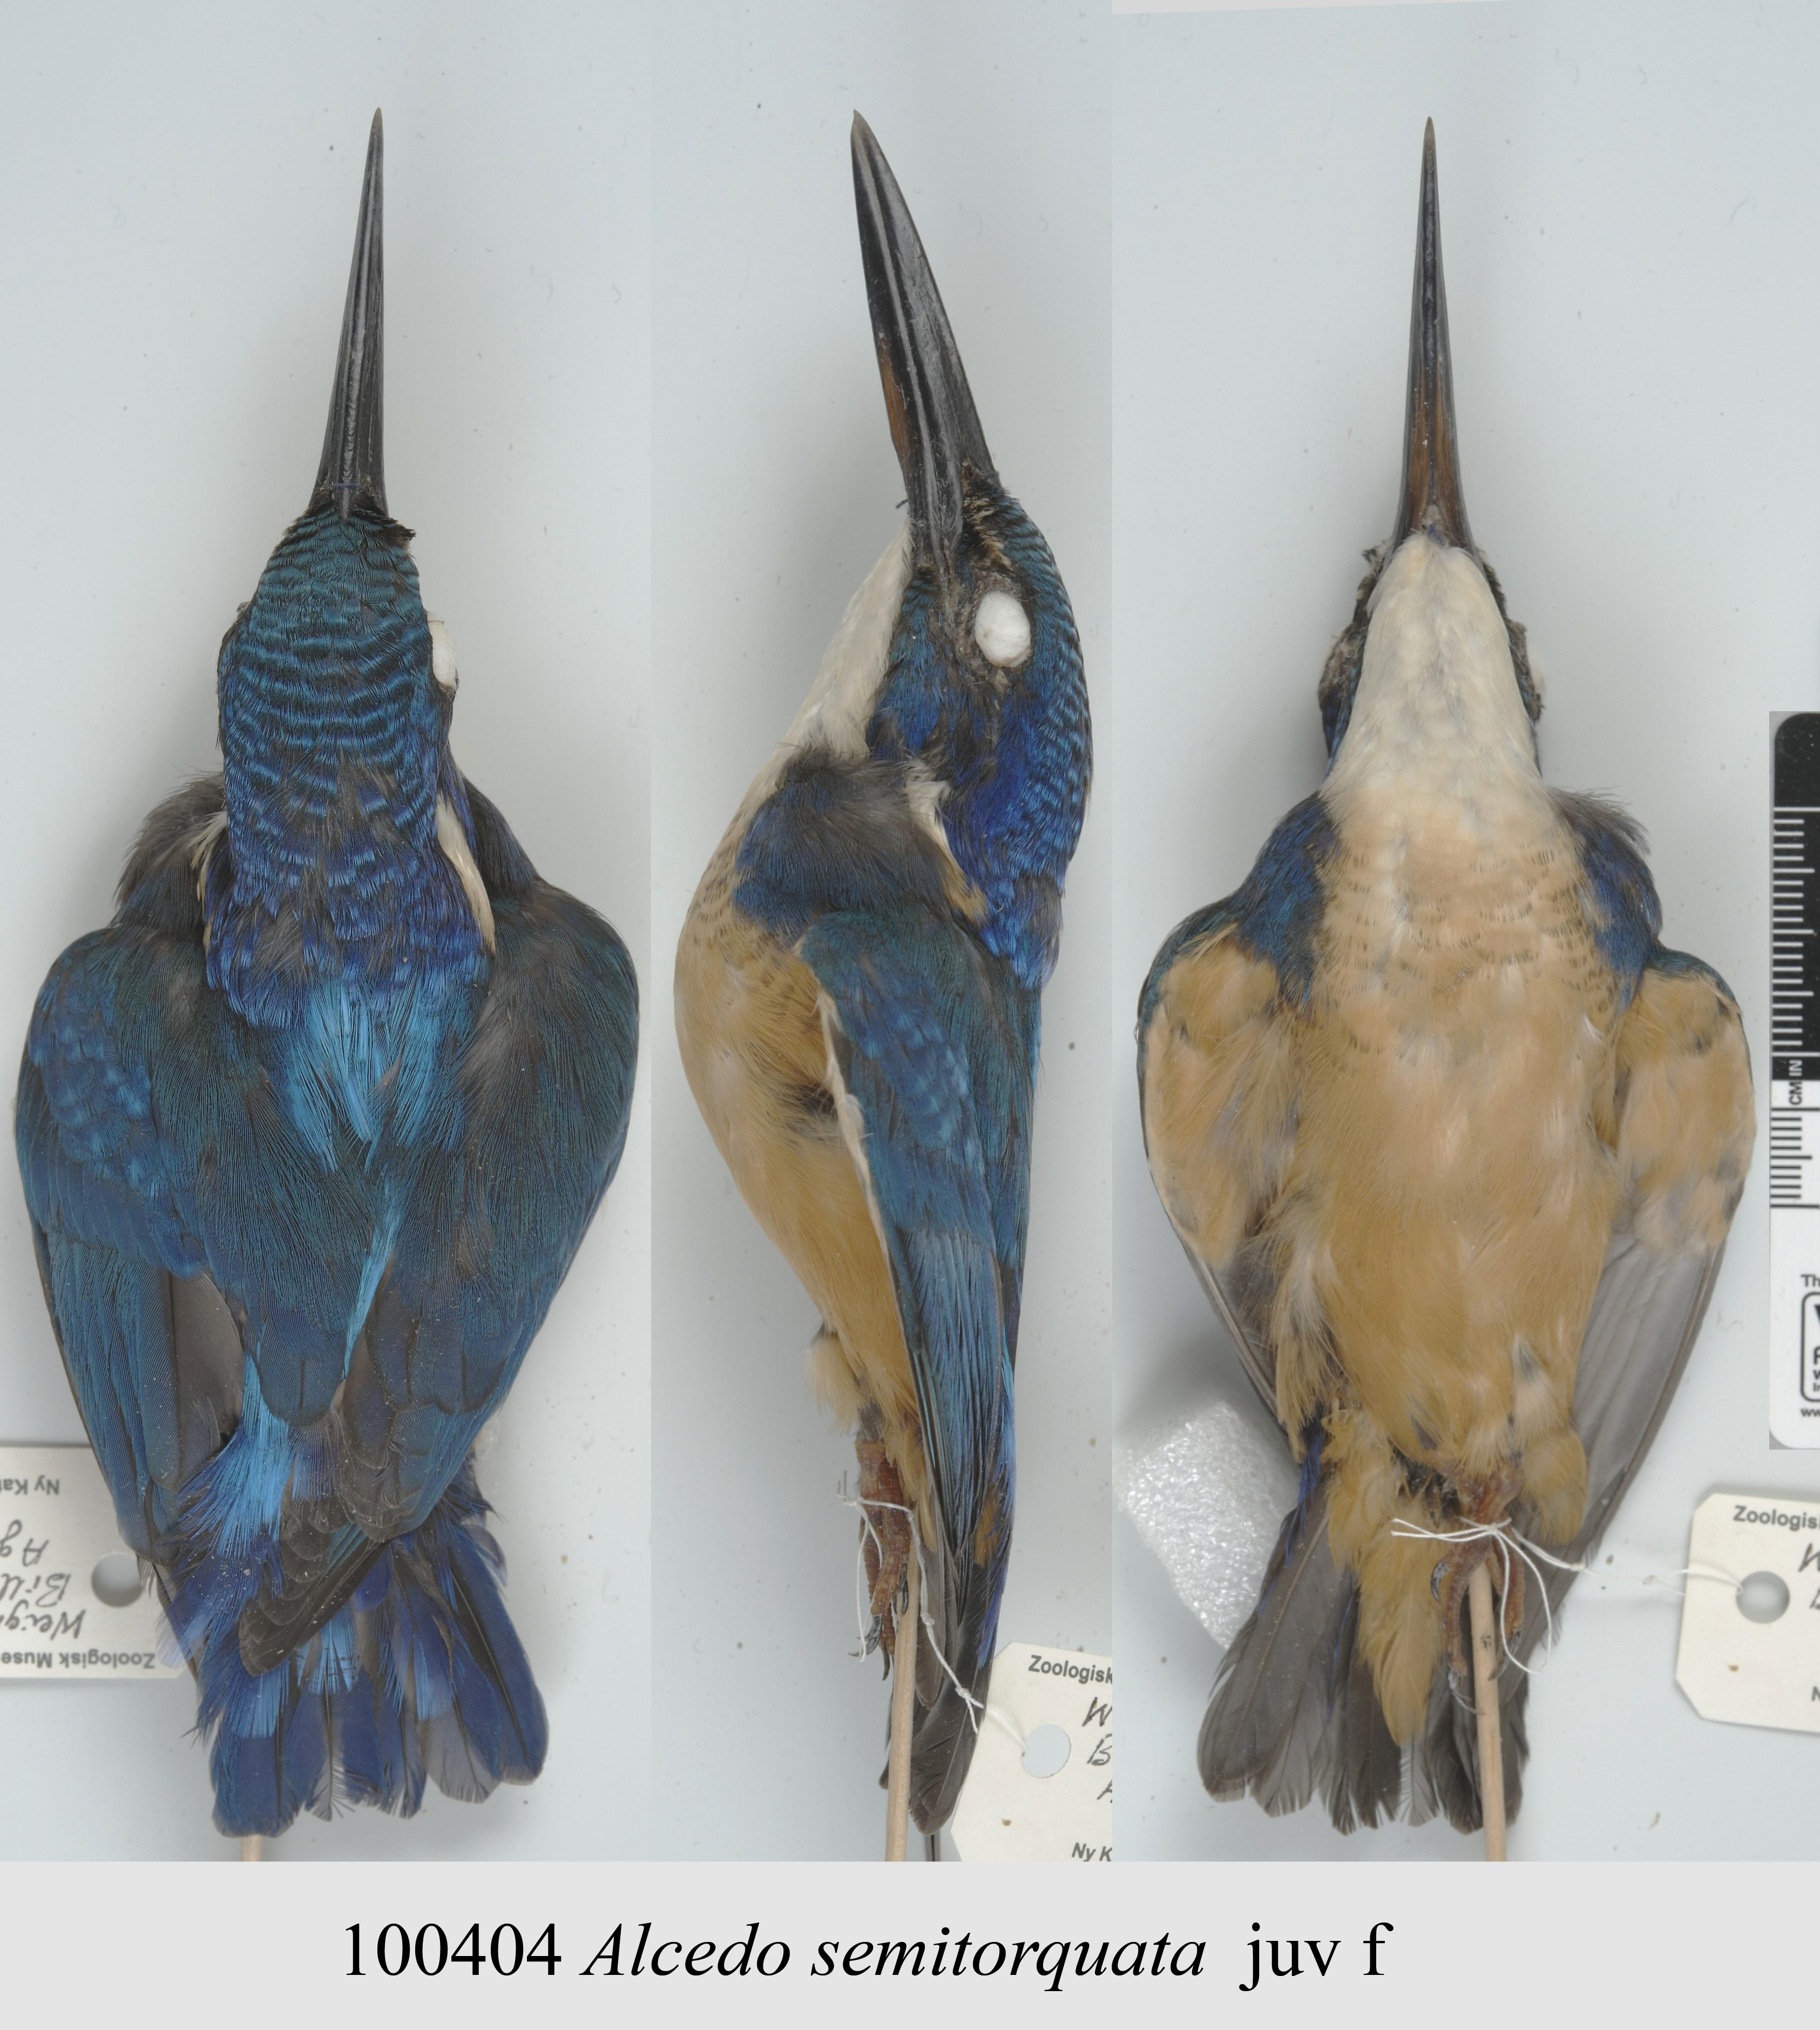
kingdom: Animalia
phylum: Chordata
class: Aves
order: Coraciiformes
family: Alcedinidae
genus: Alcedo
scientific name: Alcedo semitorquata
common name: Half-collared kingfisher
